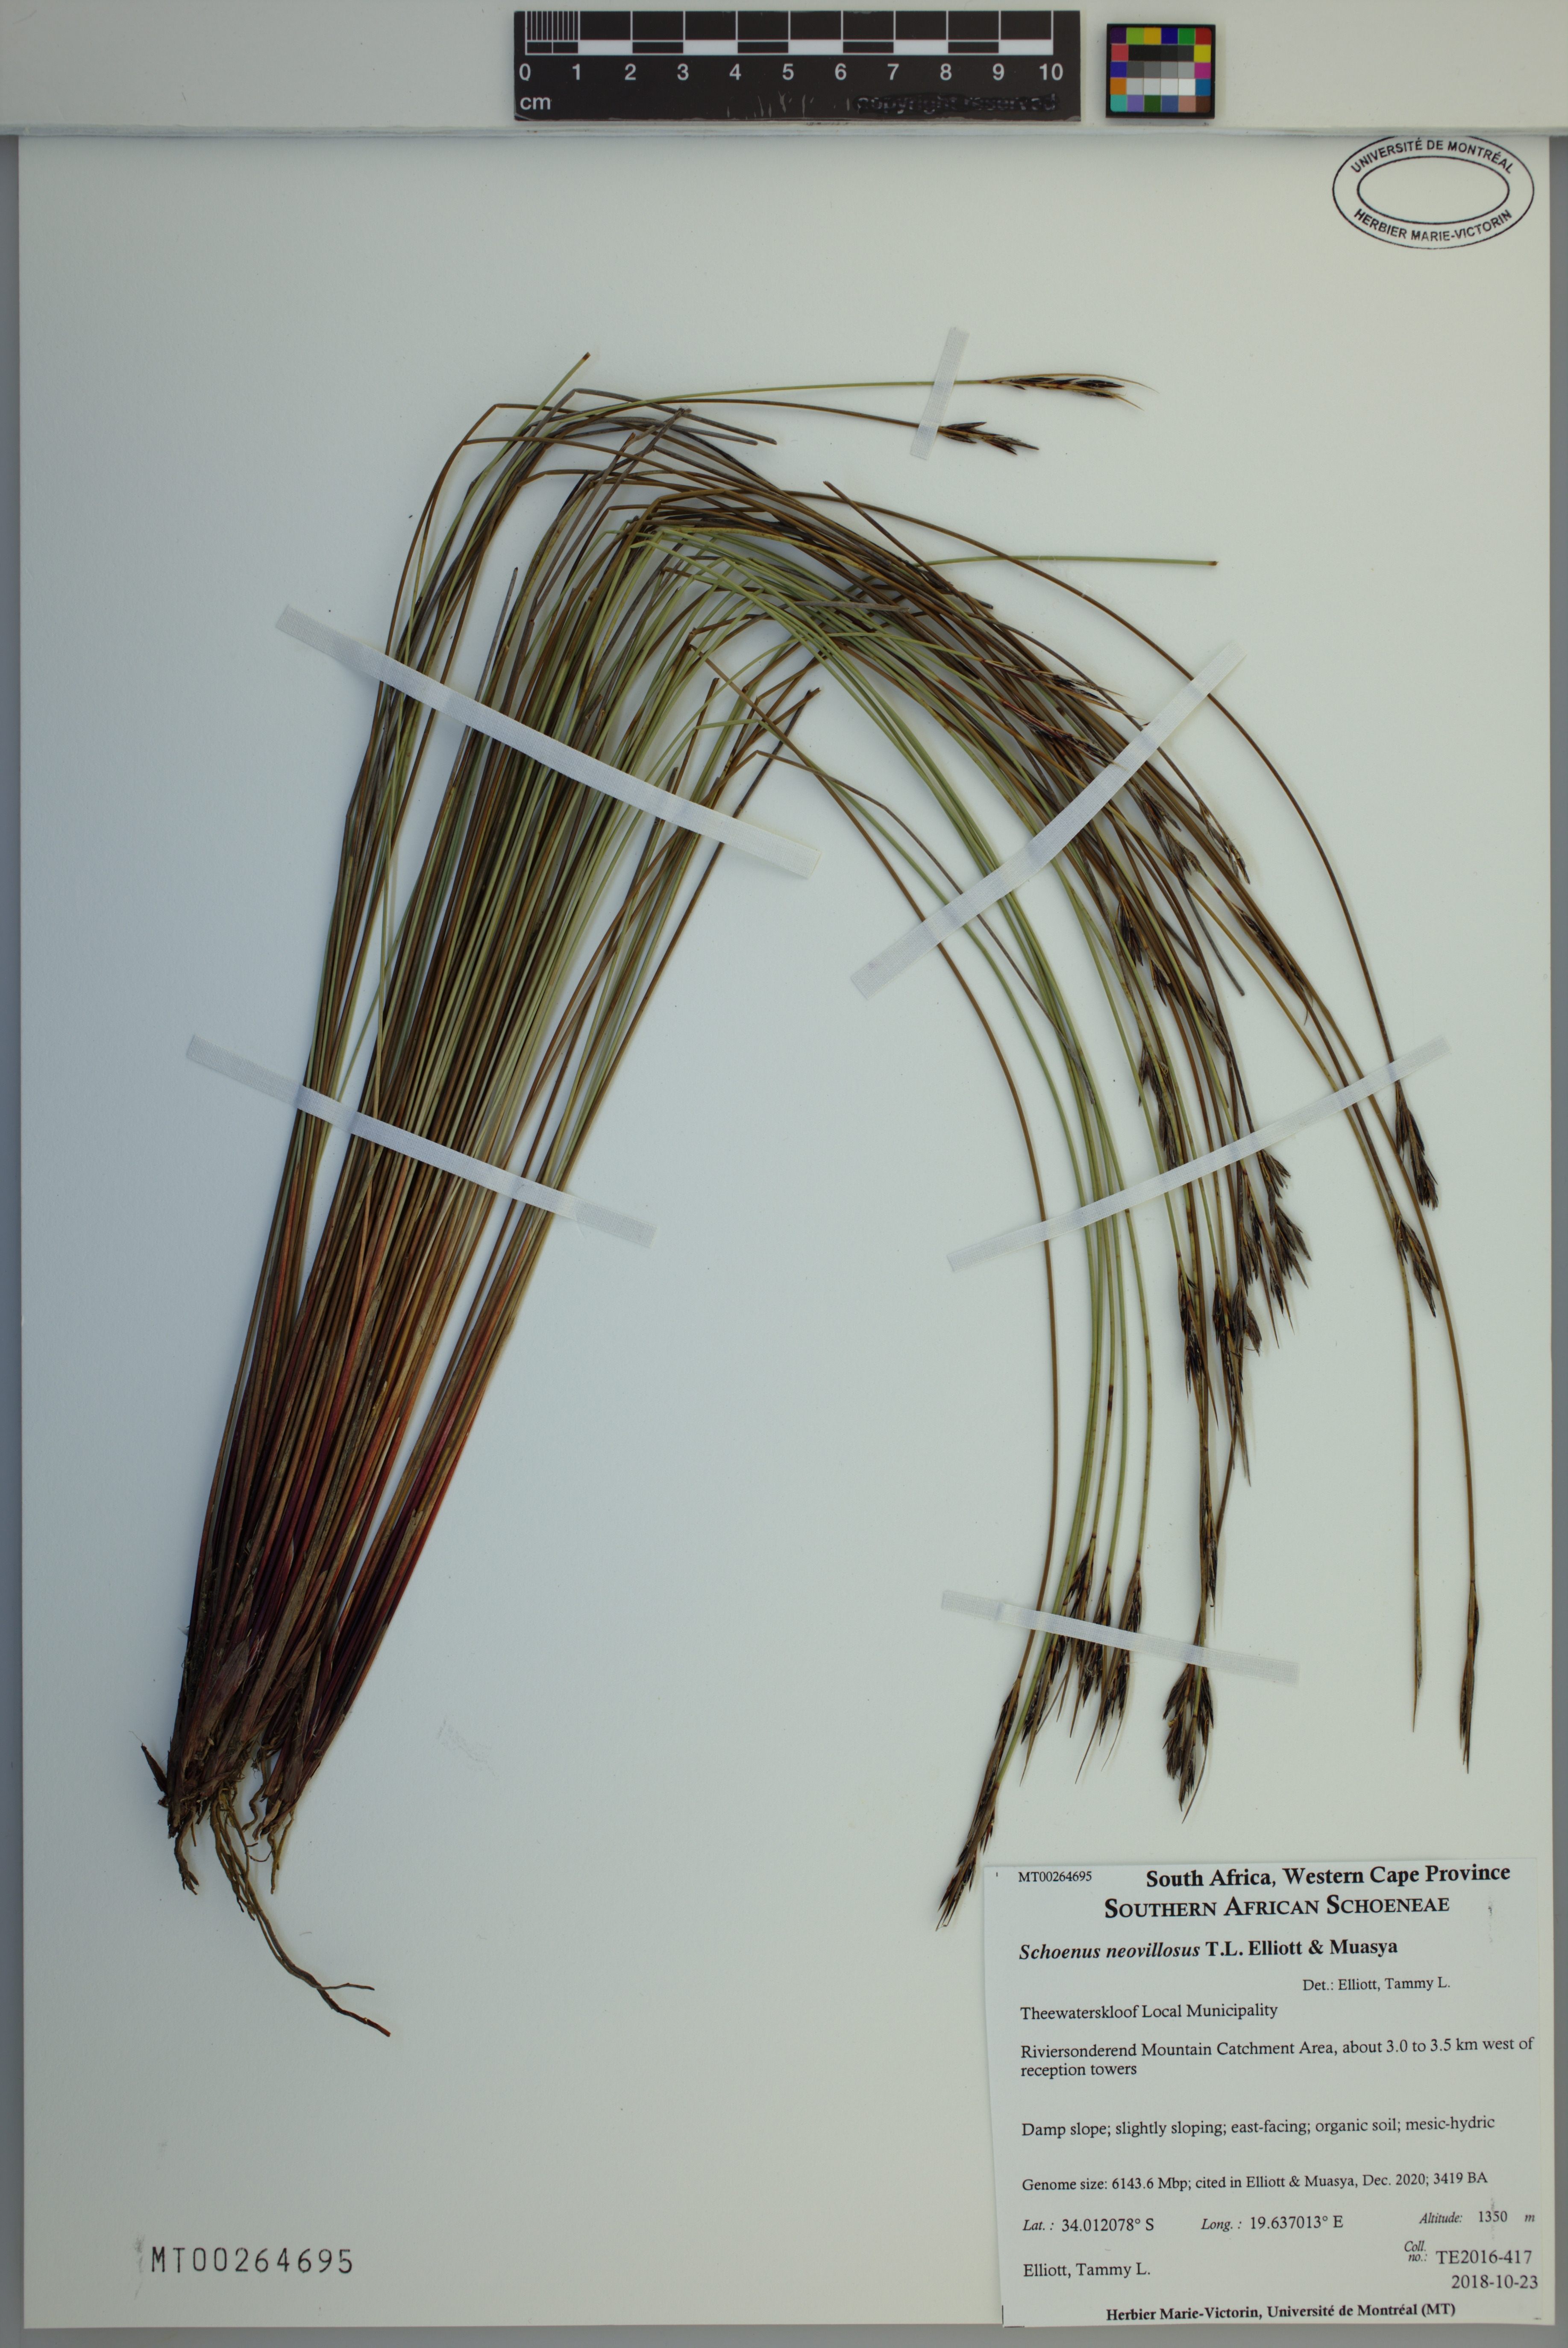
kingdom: Plantae
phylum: Tracheophyta
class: Liliopsida
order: Poales
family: Cyperaceae
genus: Schoenus
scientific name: Schoenus neovillosus
